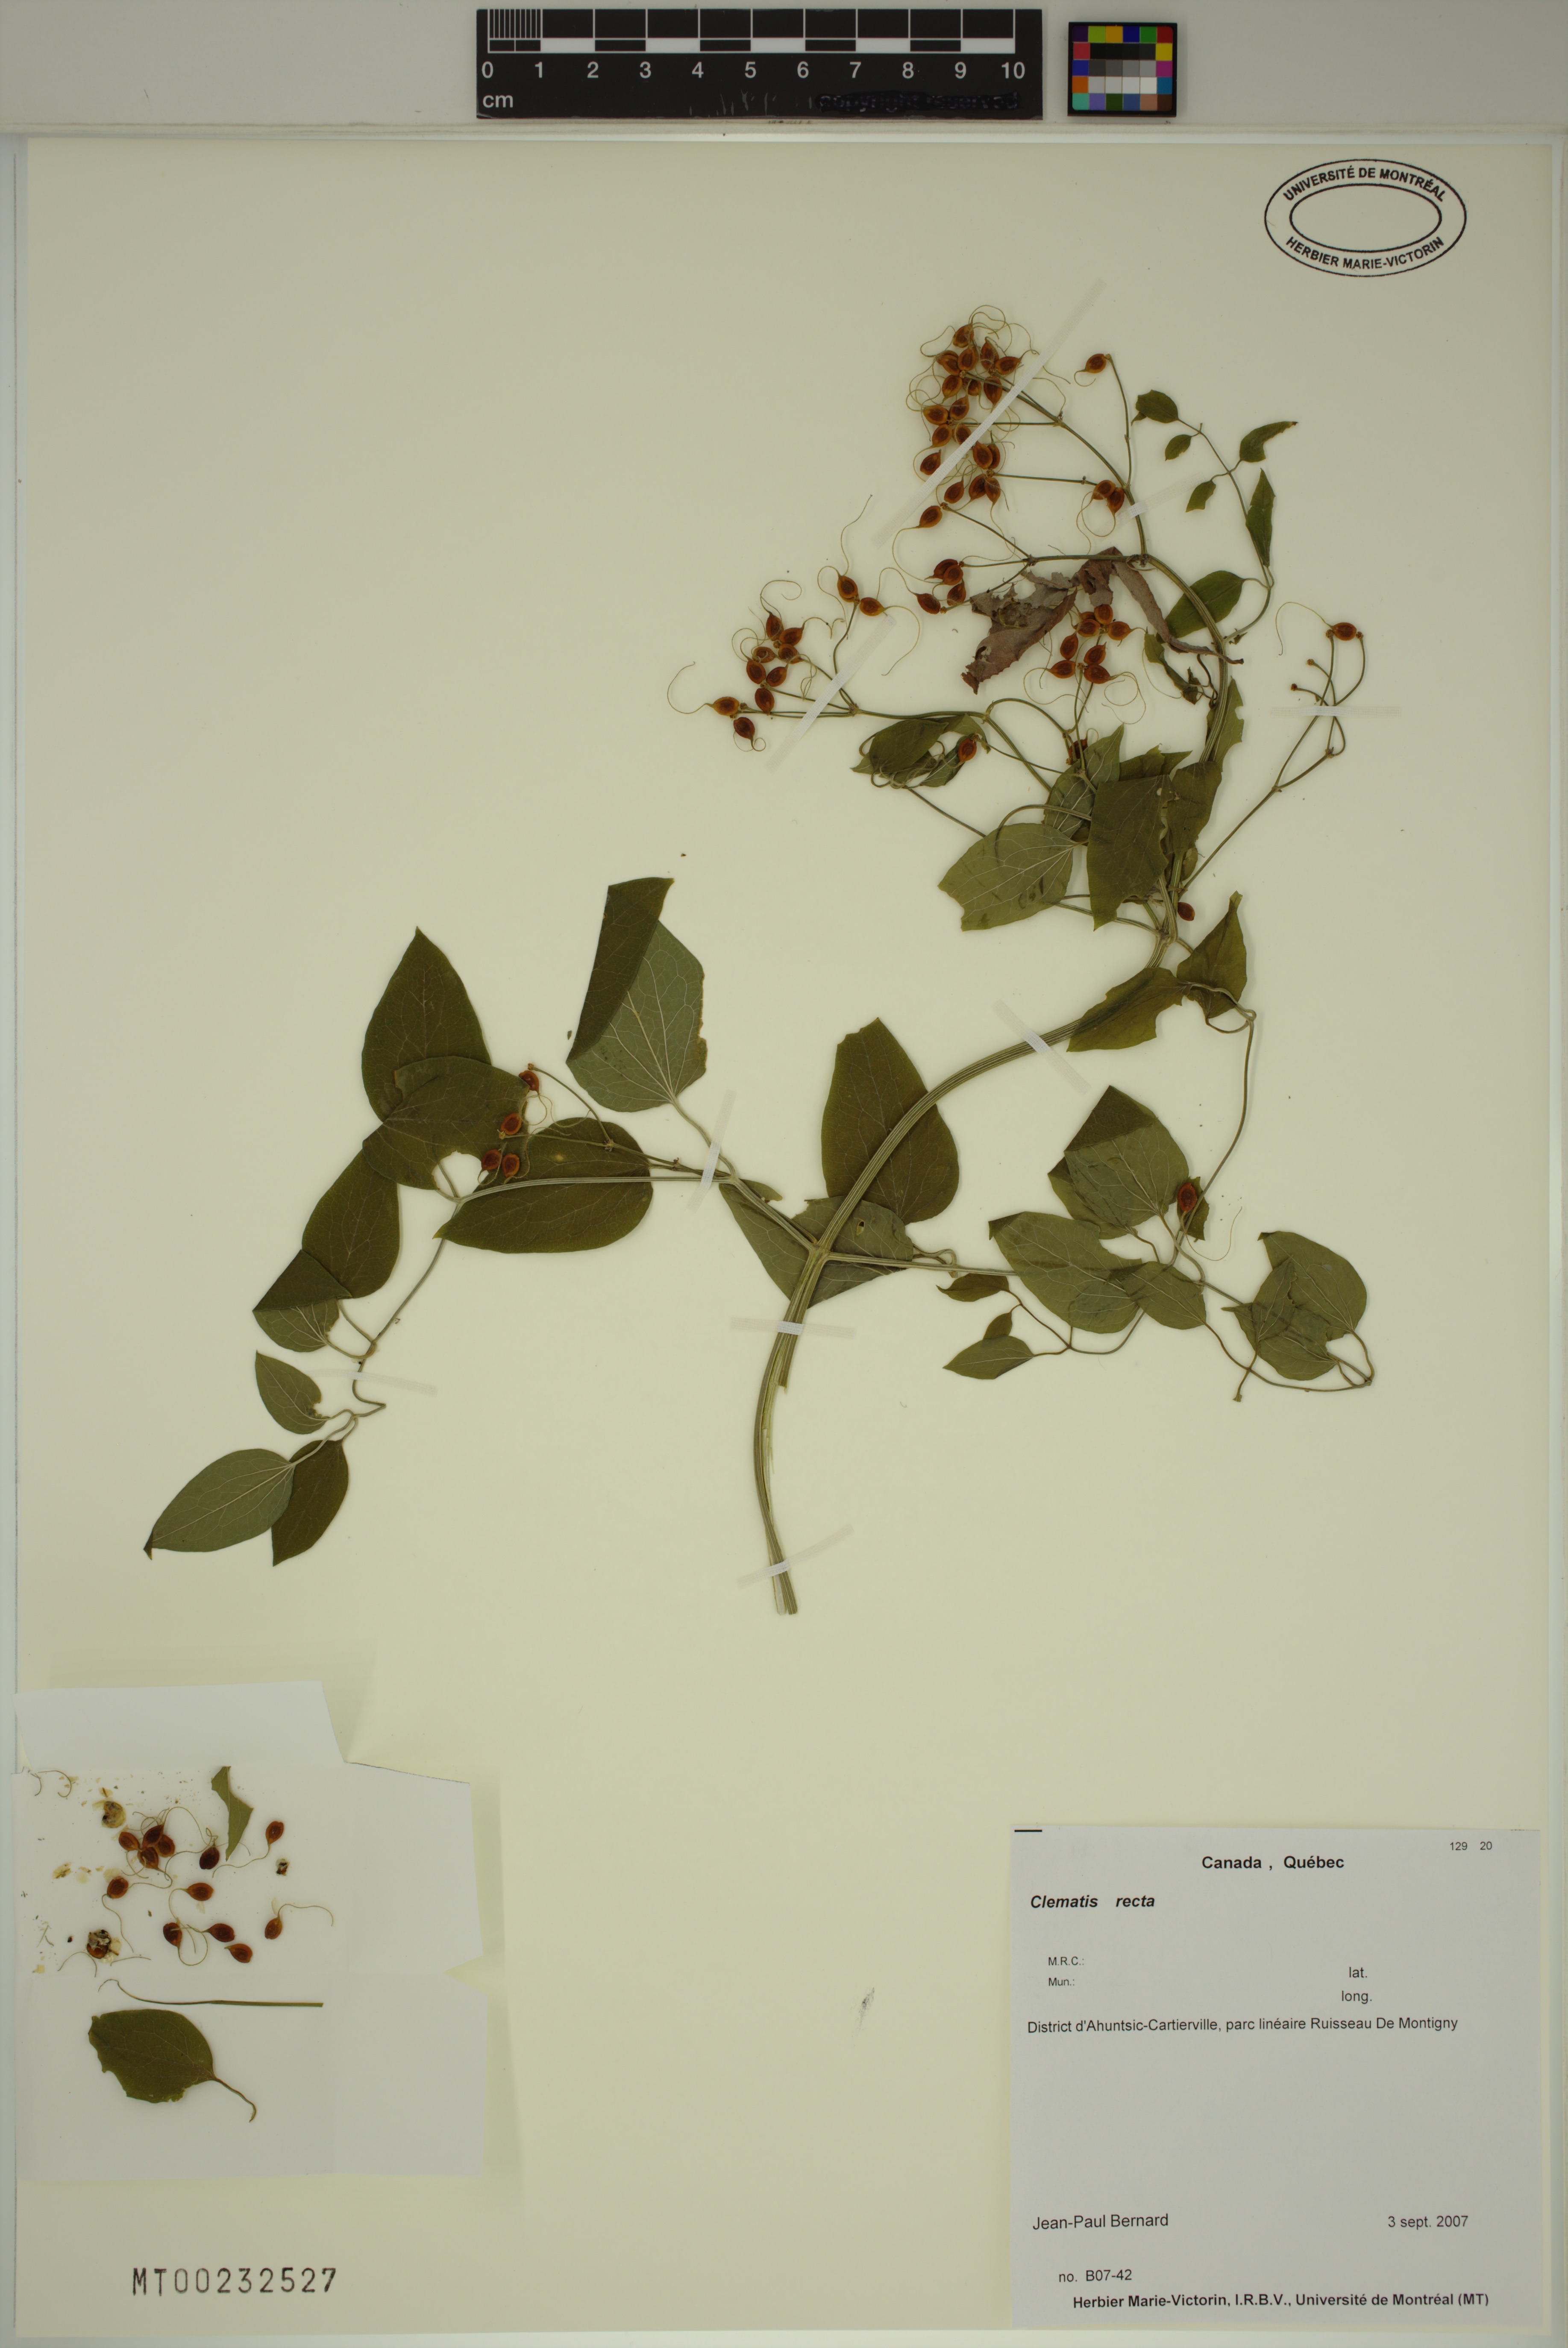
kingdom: Plantae
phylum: Tracheophyta
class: Magnoliopsida
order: Ranunculales
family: Ranunculaceae
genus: Clematis
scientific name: Clematis recta
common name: Ground clematis
